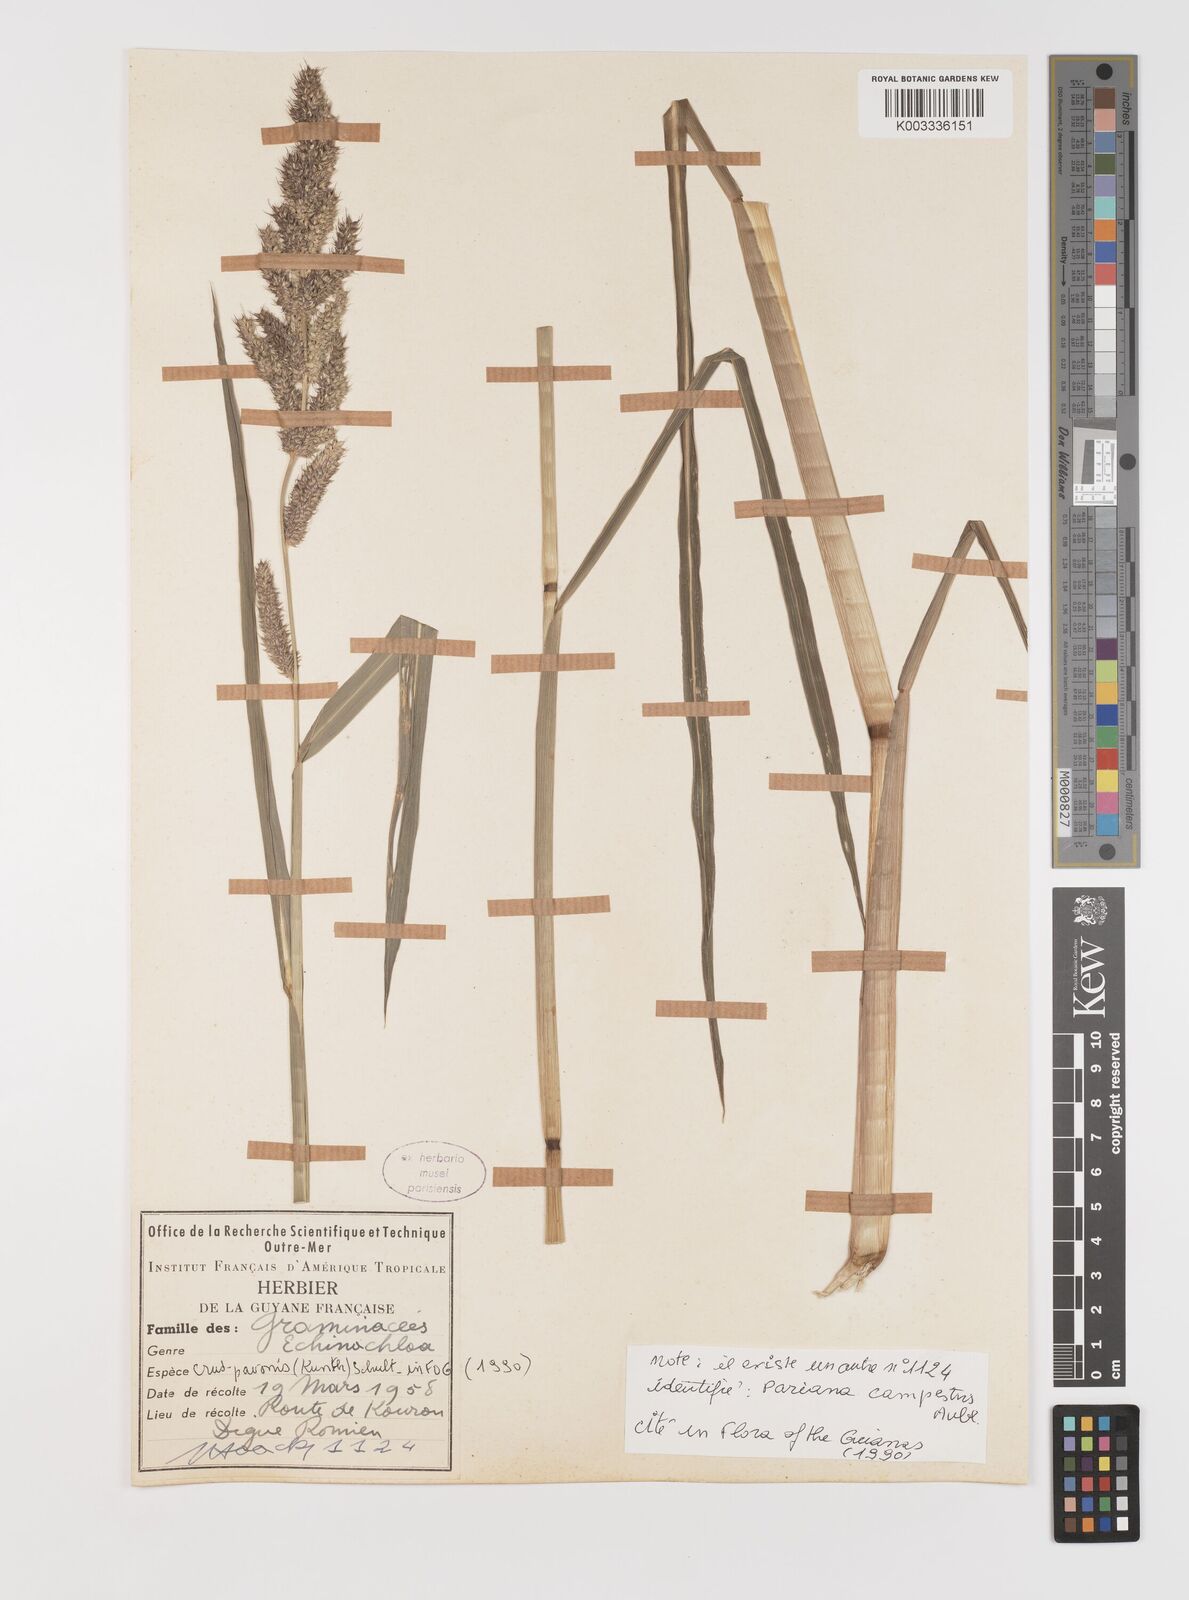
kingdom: Plantae
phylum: Tracheophyta
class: Liliopsida
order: Poales
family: Poaceae
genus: Echinochloa
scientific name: Echinochloa crus-pavonis
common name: Gulf cockspur grass
